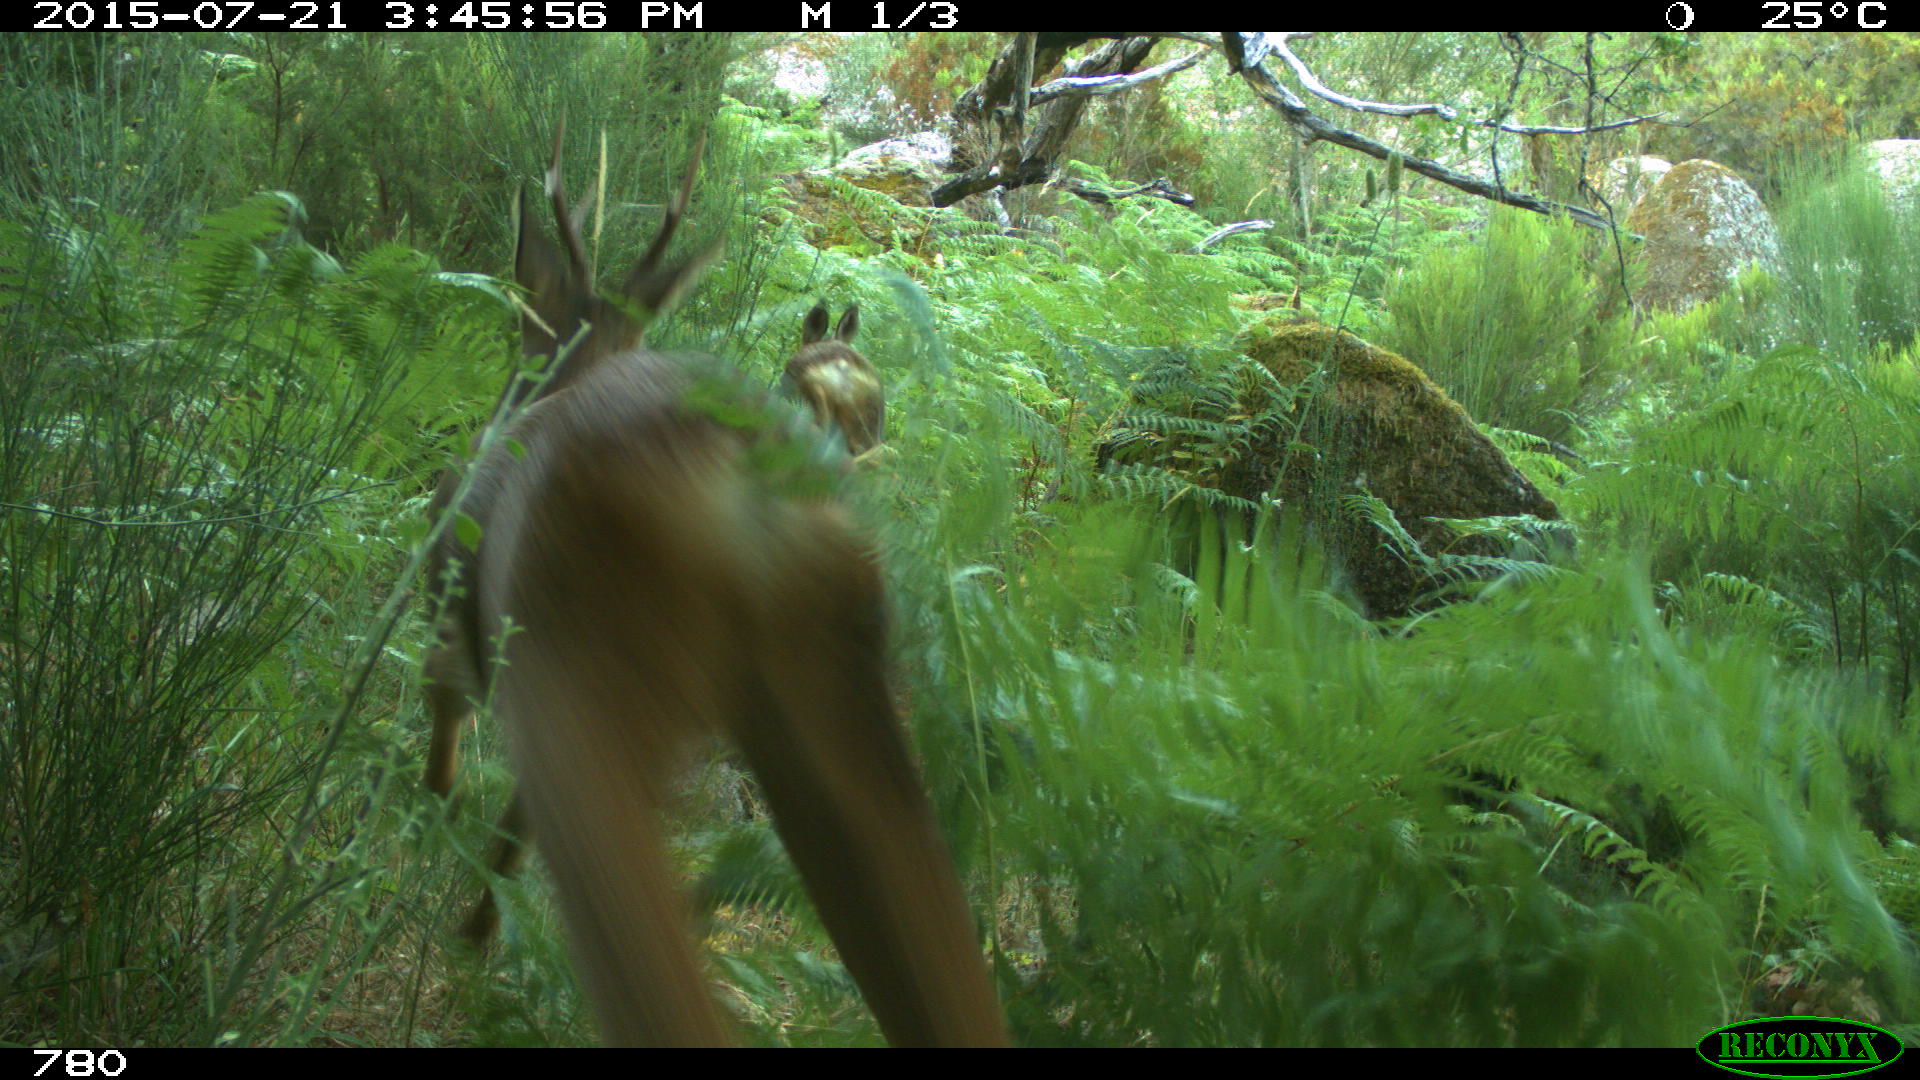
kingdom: Animalia
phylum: Chordata
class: Mammalia
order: Artiodactyla
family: Cervidae
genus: Capreolus
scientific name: Capreolus capreolus
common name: Western roe deer
